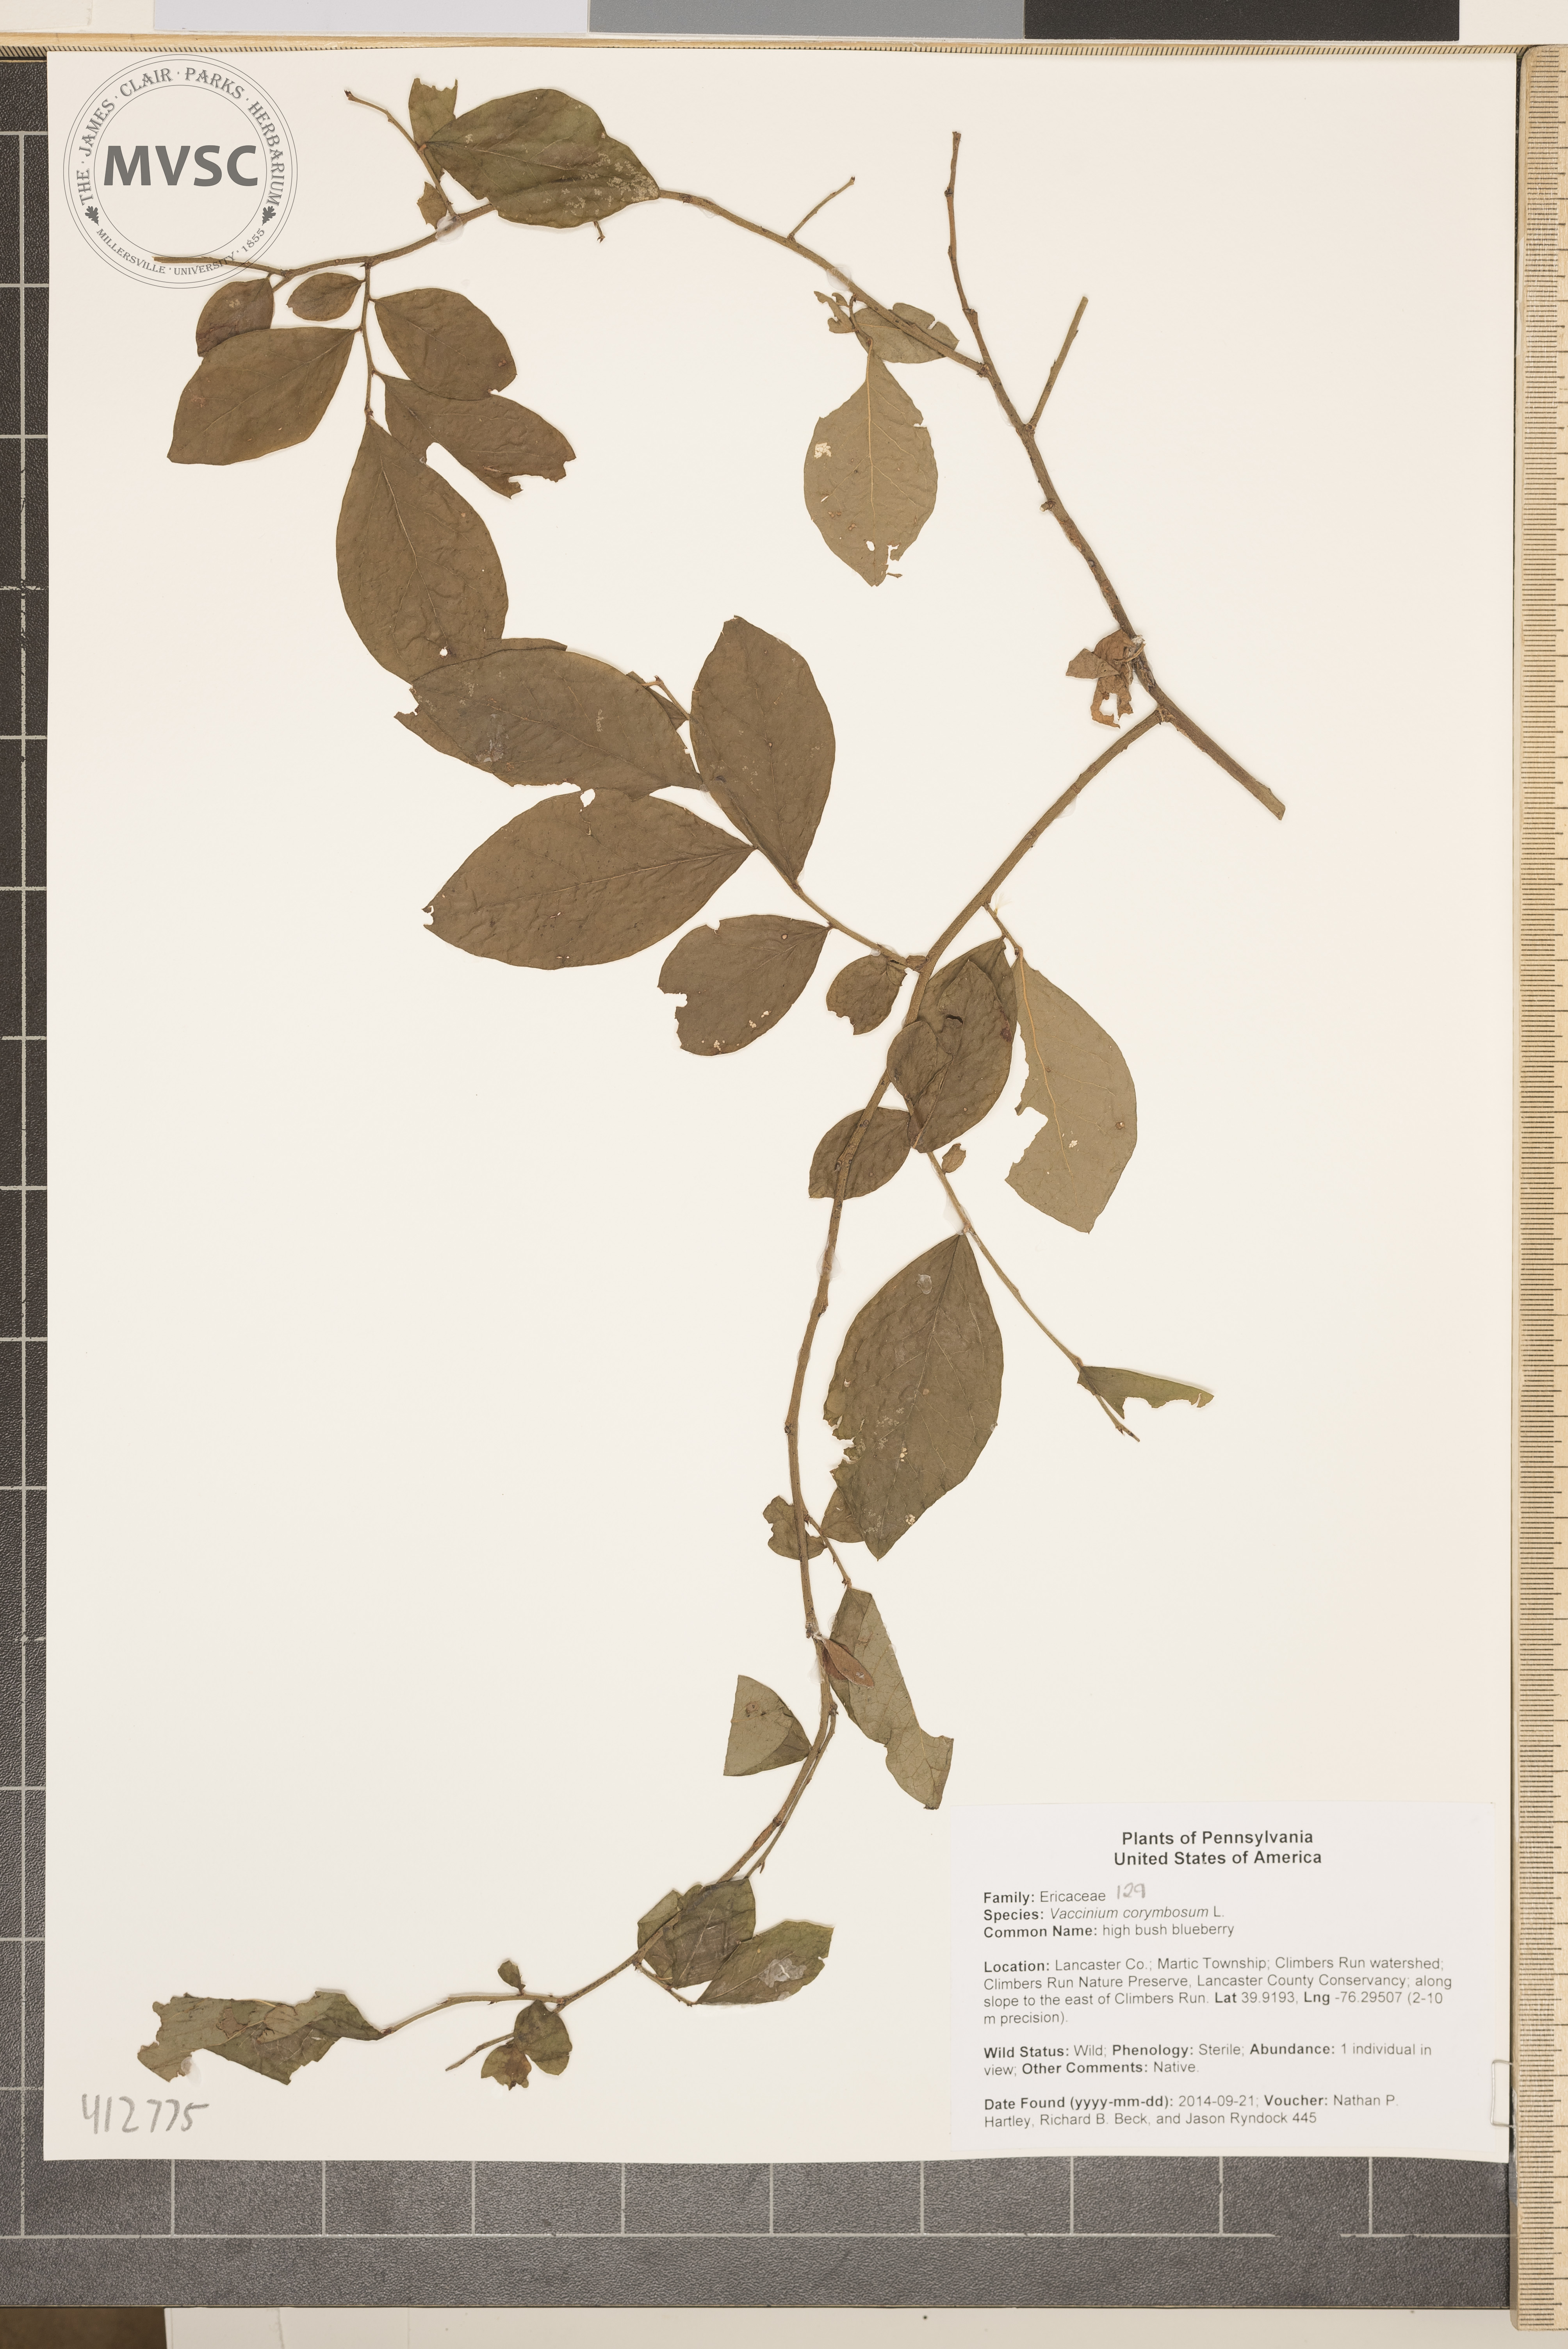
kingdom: Plantae
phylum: Tracheophyta
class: Magnoliopsida
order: Ericales
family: Ericaceae
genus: Vaccinium
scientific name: Vaccinium corymbosum
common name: northern highbush blueberry
